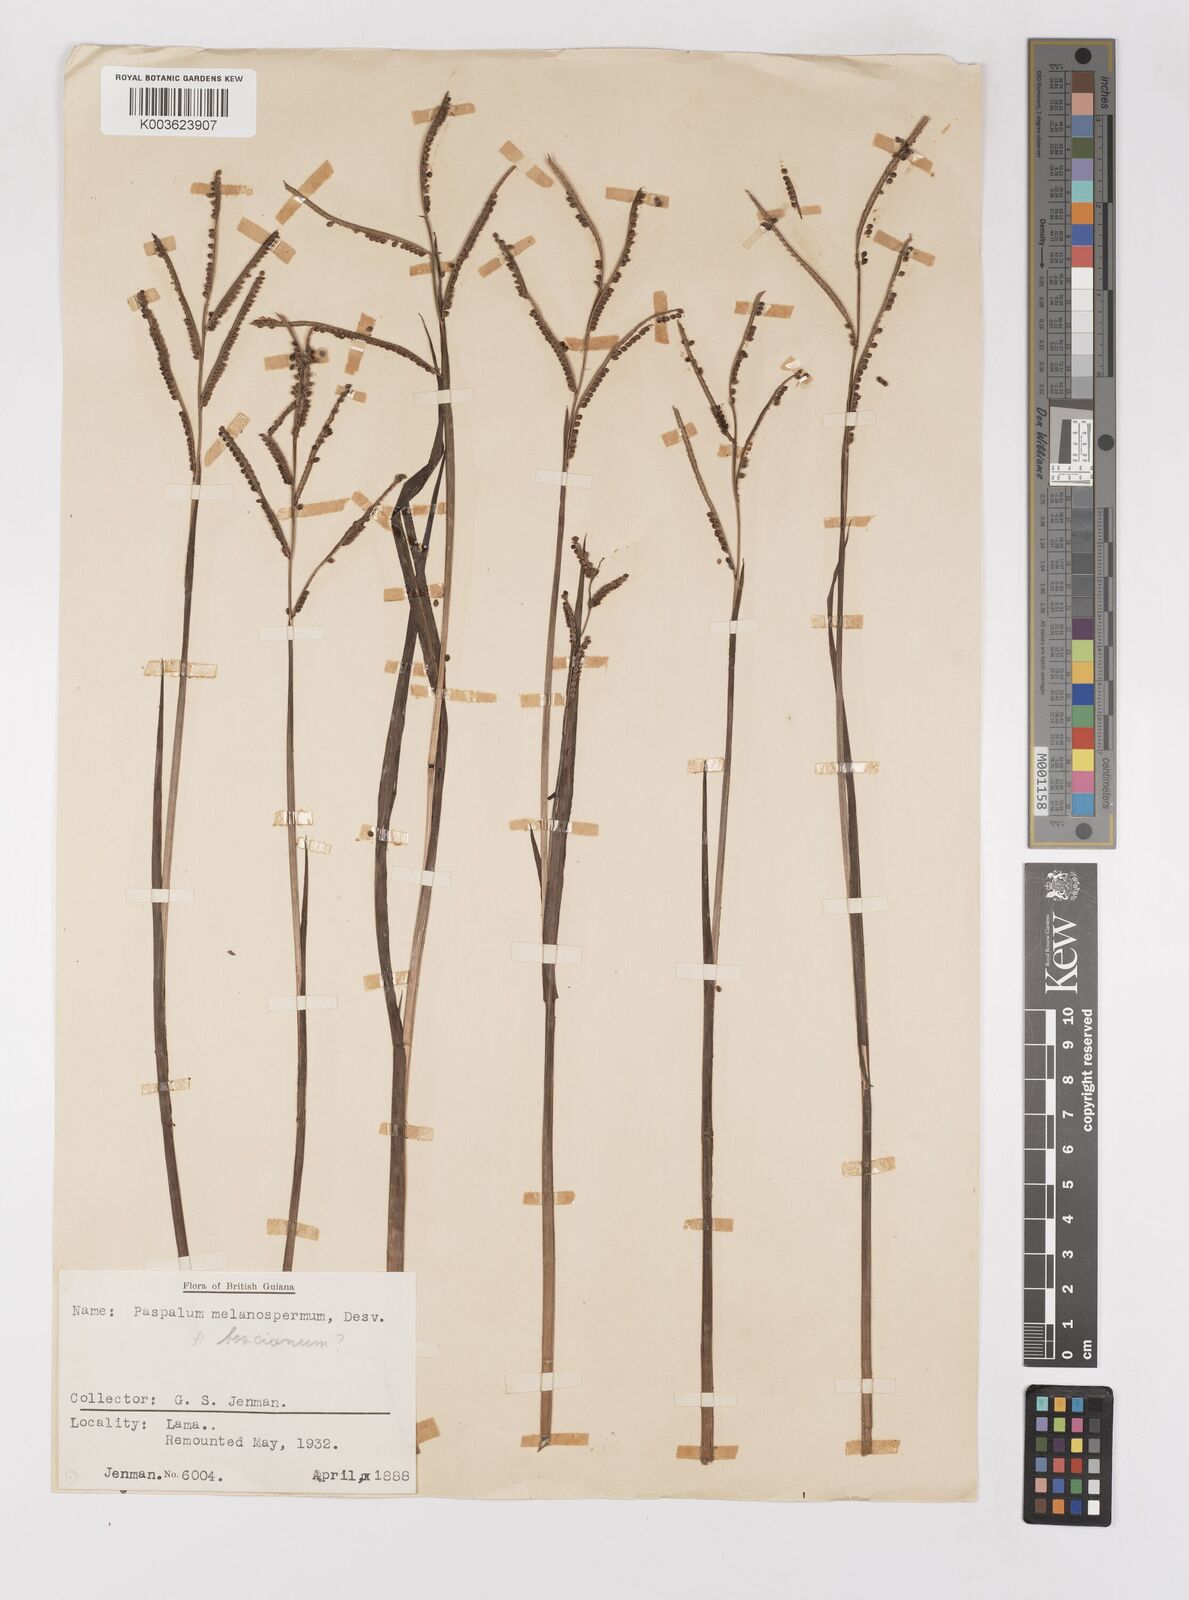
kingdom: Plantae
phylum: Tracheophyta
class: Liliopsida
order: Poales
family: Poaceae
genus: Paspalum
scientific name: Paspalum melanospermum
